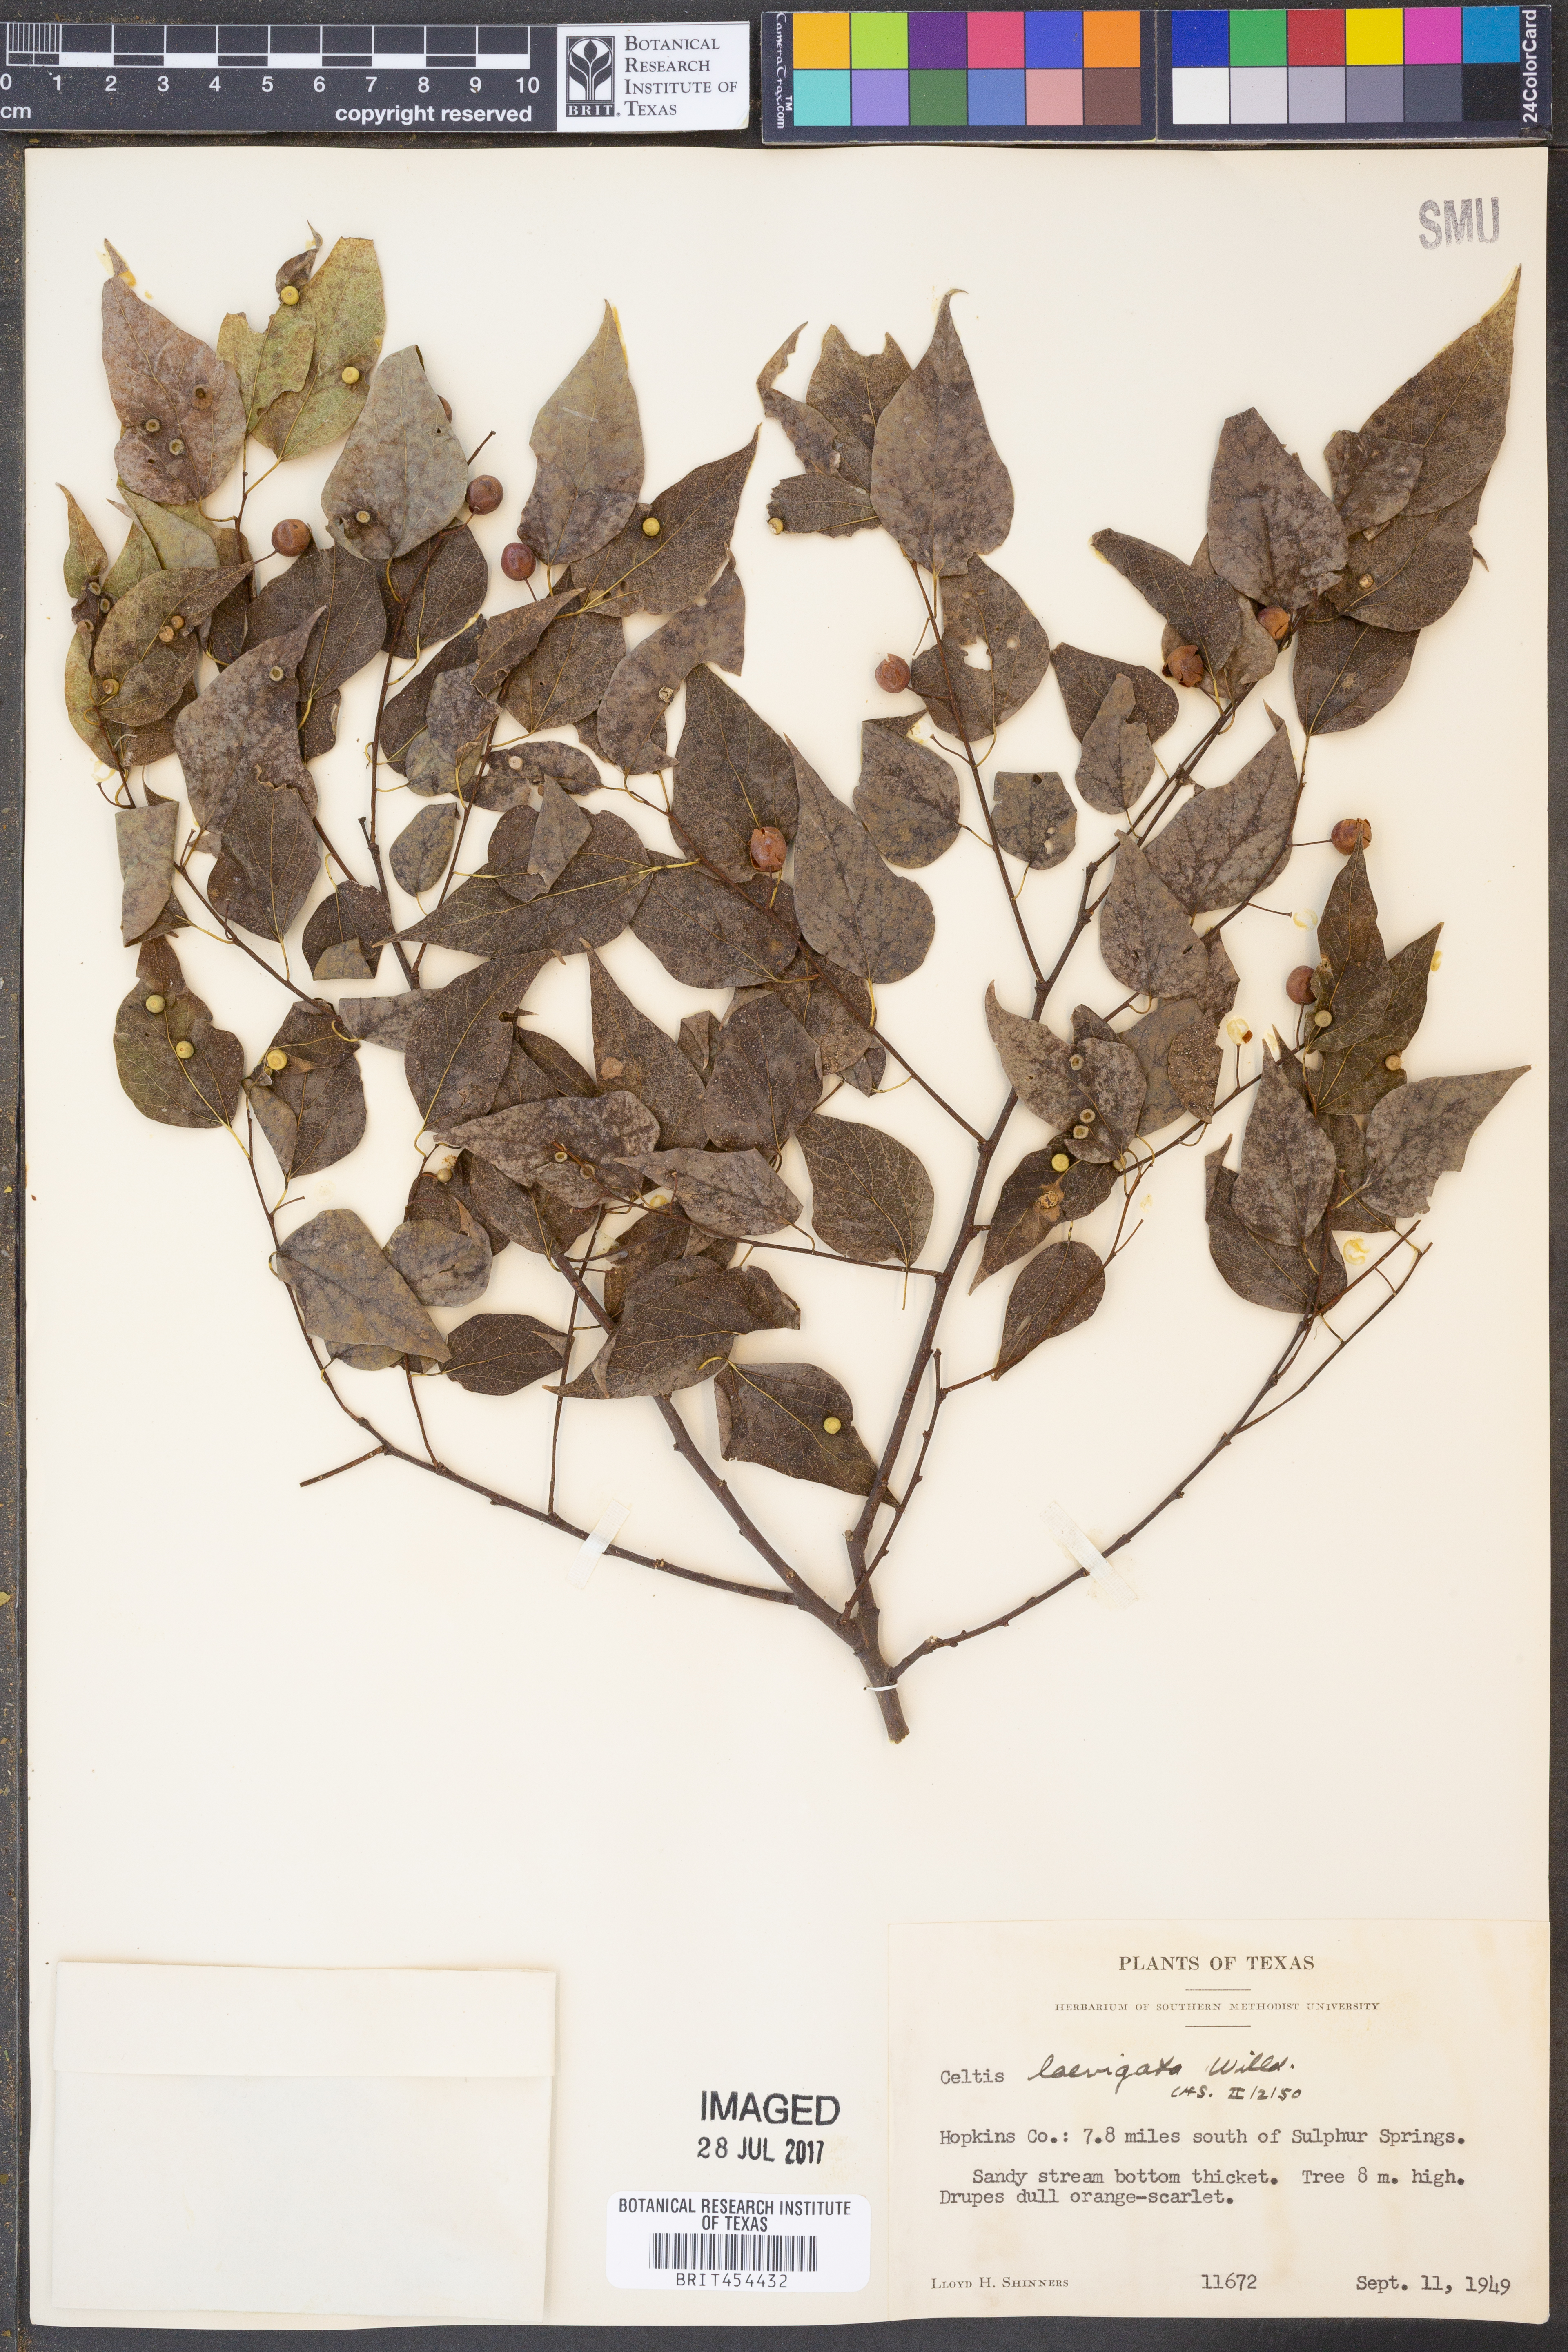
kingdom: Plantae
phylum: Tracheophyta
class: Magnoliopsida
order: Rosales
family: Cannabaceae
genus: Celtis
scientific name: Celtis laevigata
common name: Sugarberry
